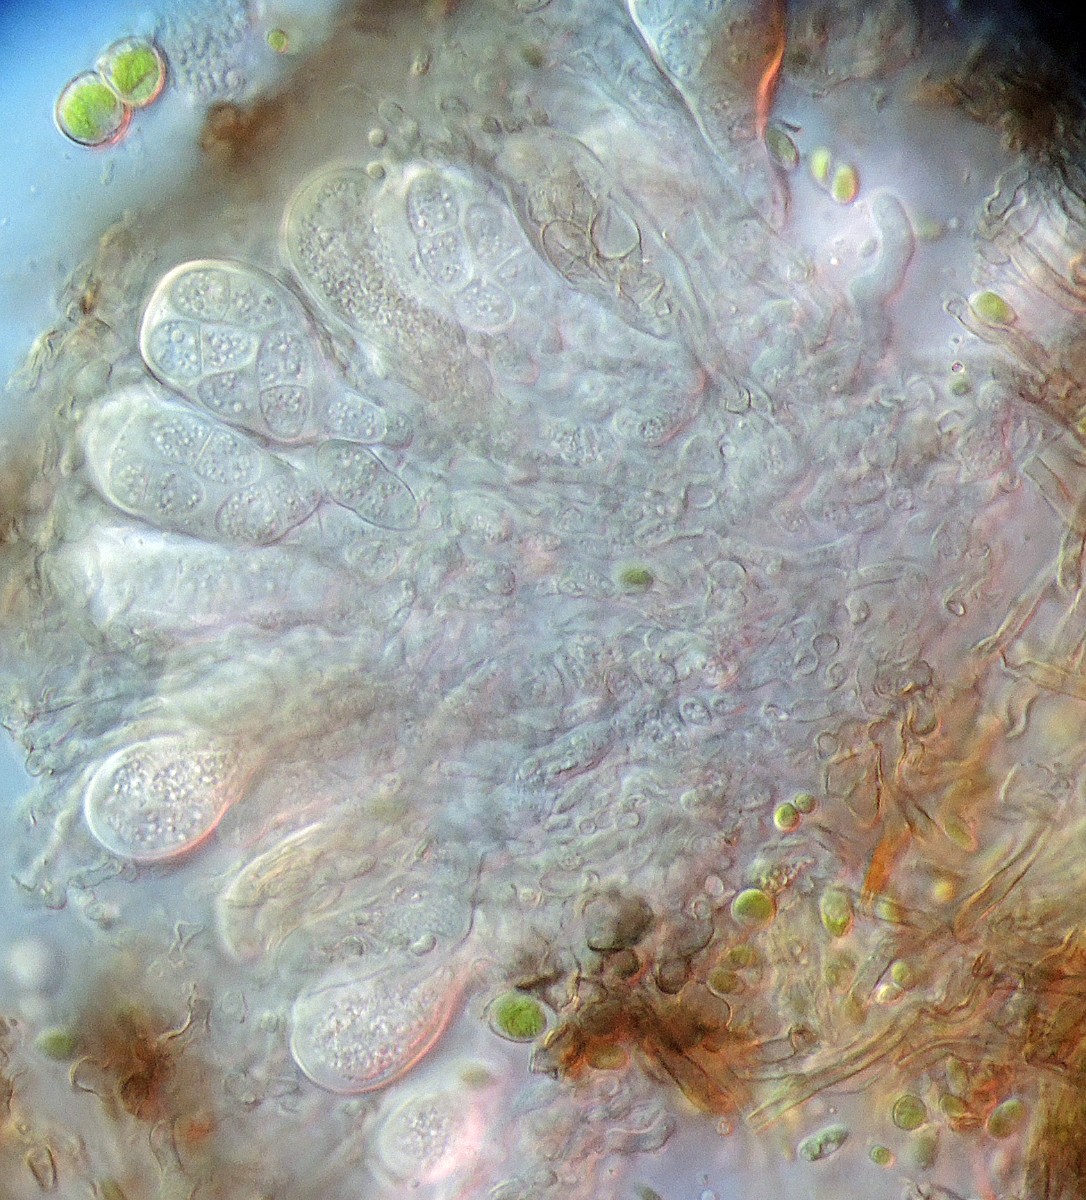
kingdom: Fungi
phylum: Ascomycota
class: Arthoniomycetes
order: Arthoniales
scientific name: Arthoniales
